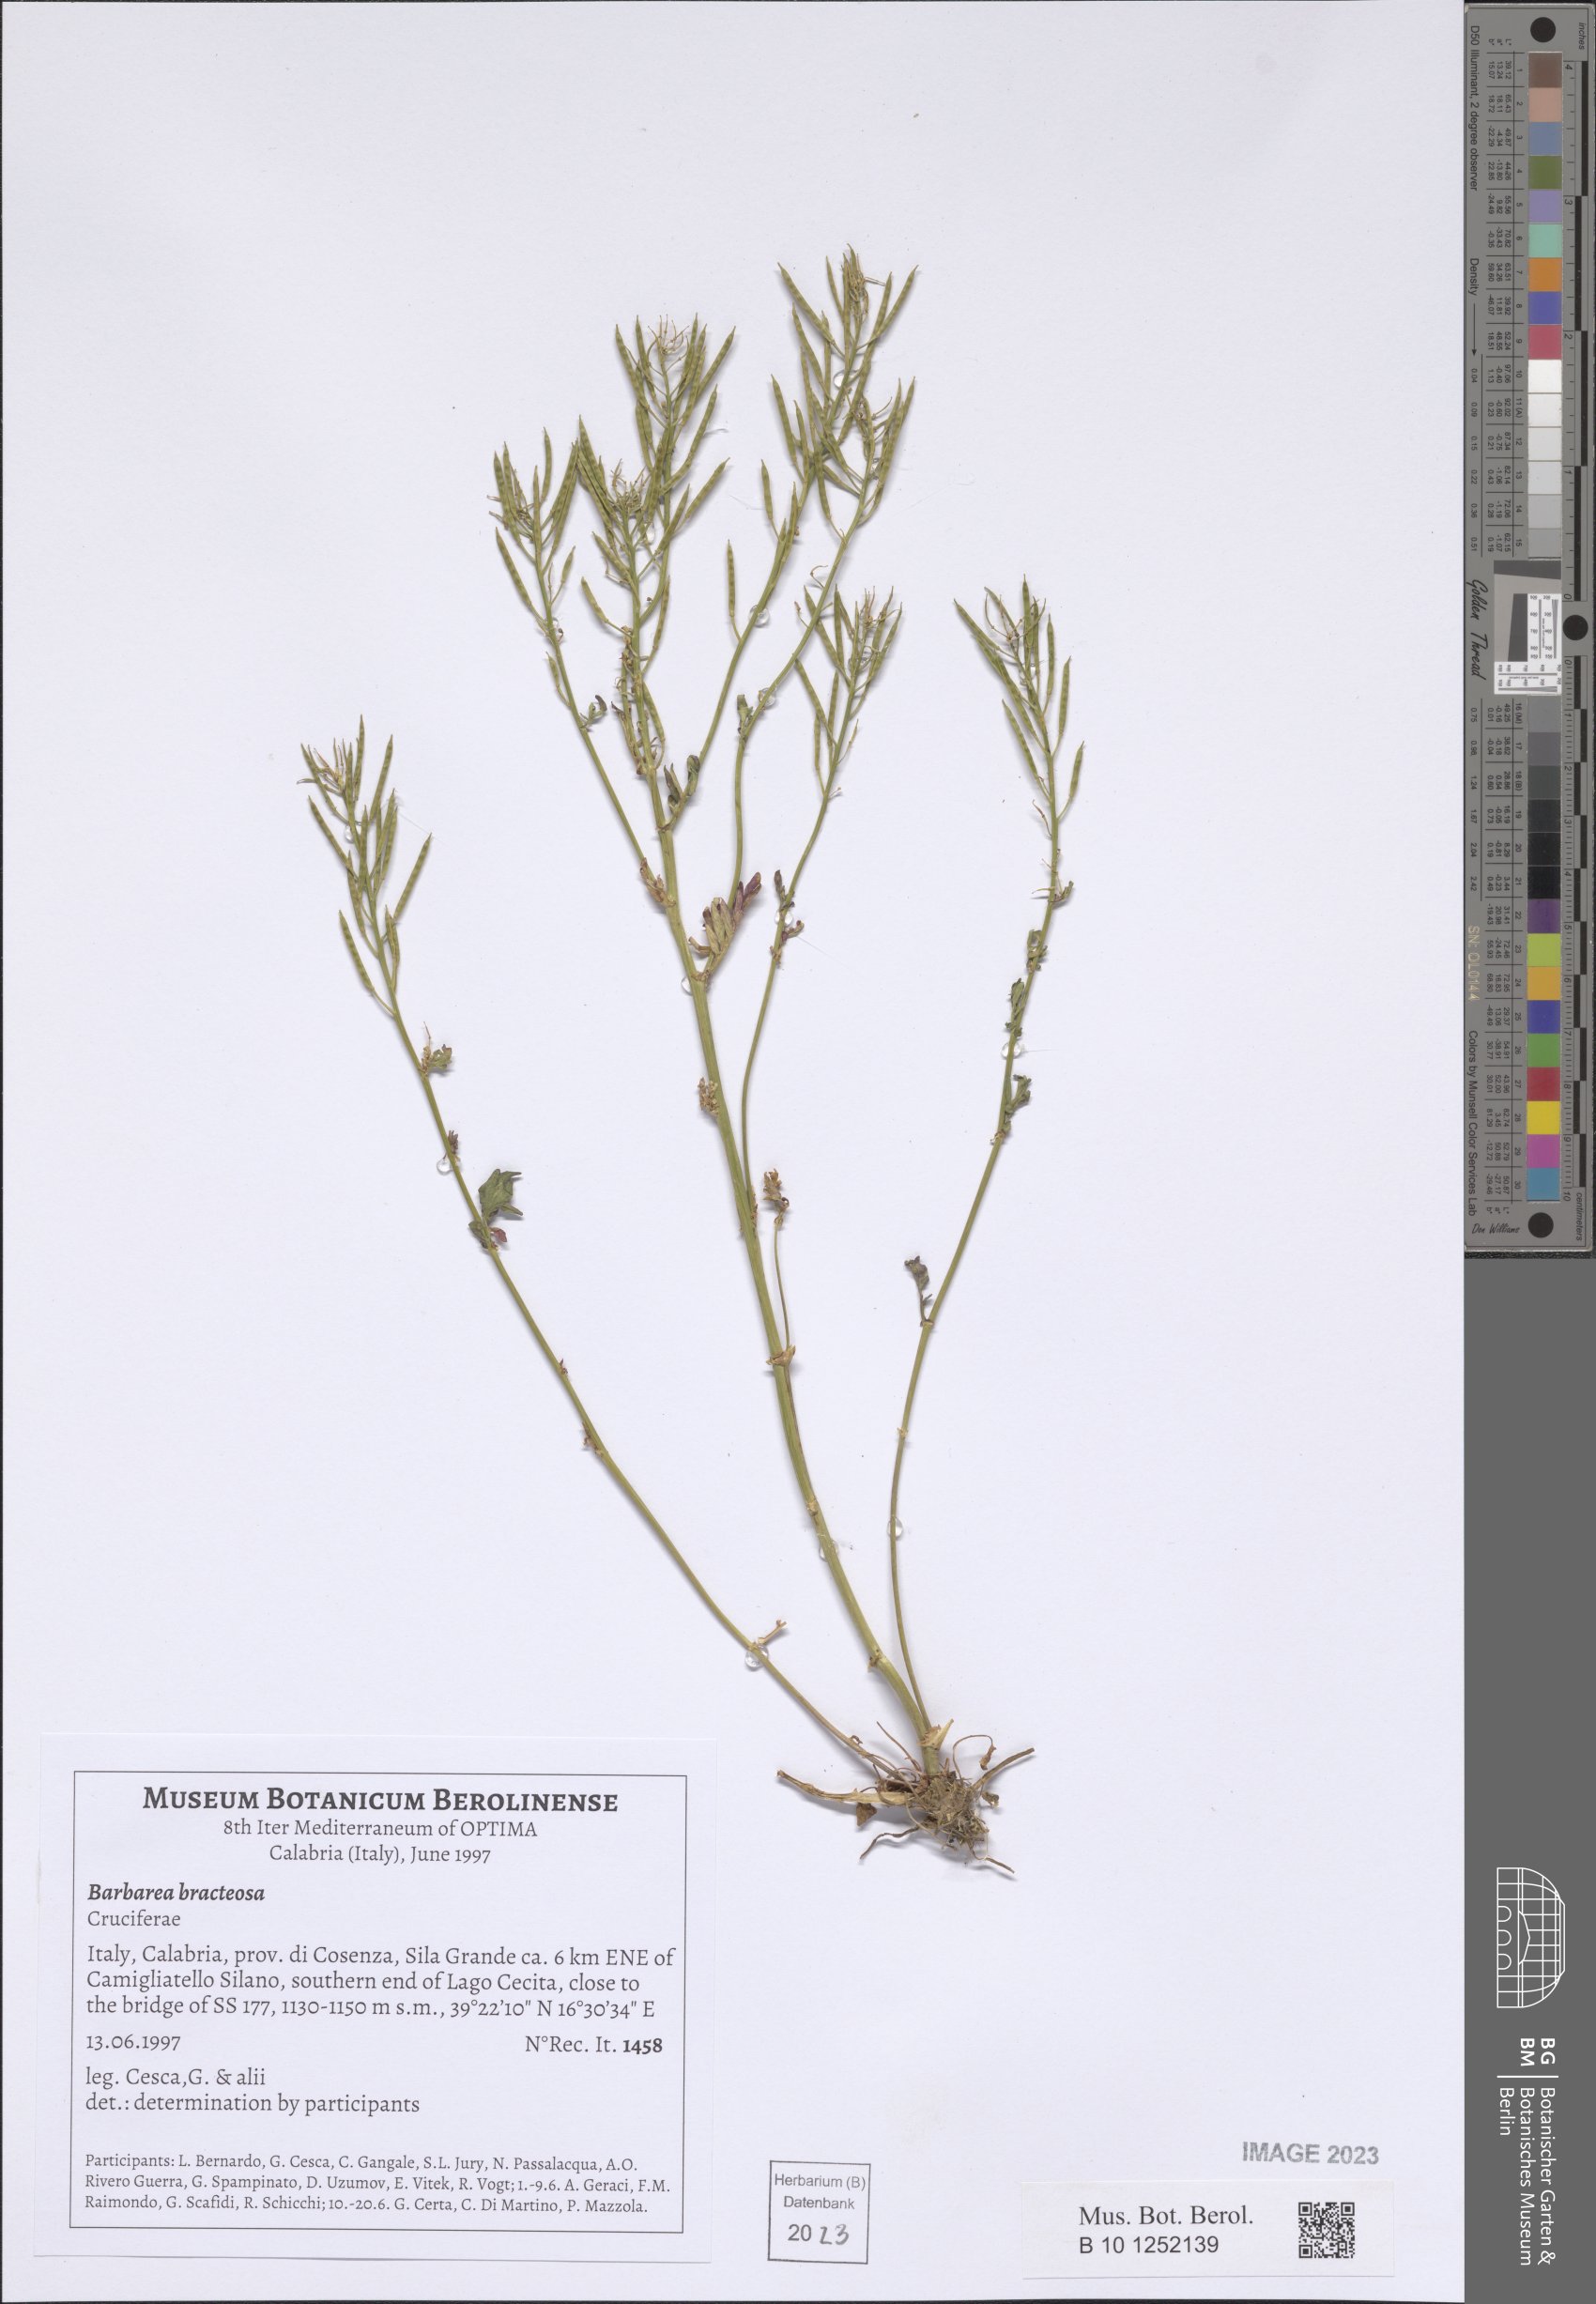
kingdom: Plantae
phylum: Tracheophyta
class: Magnoliopsida
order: Brassicales
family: Brassicaceae
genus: Barbarea
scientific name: Barbarea bracteosa
